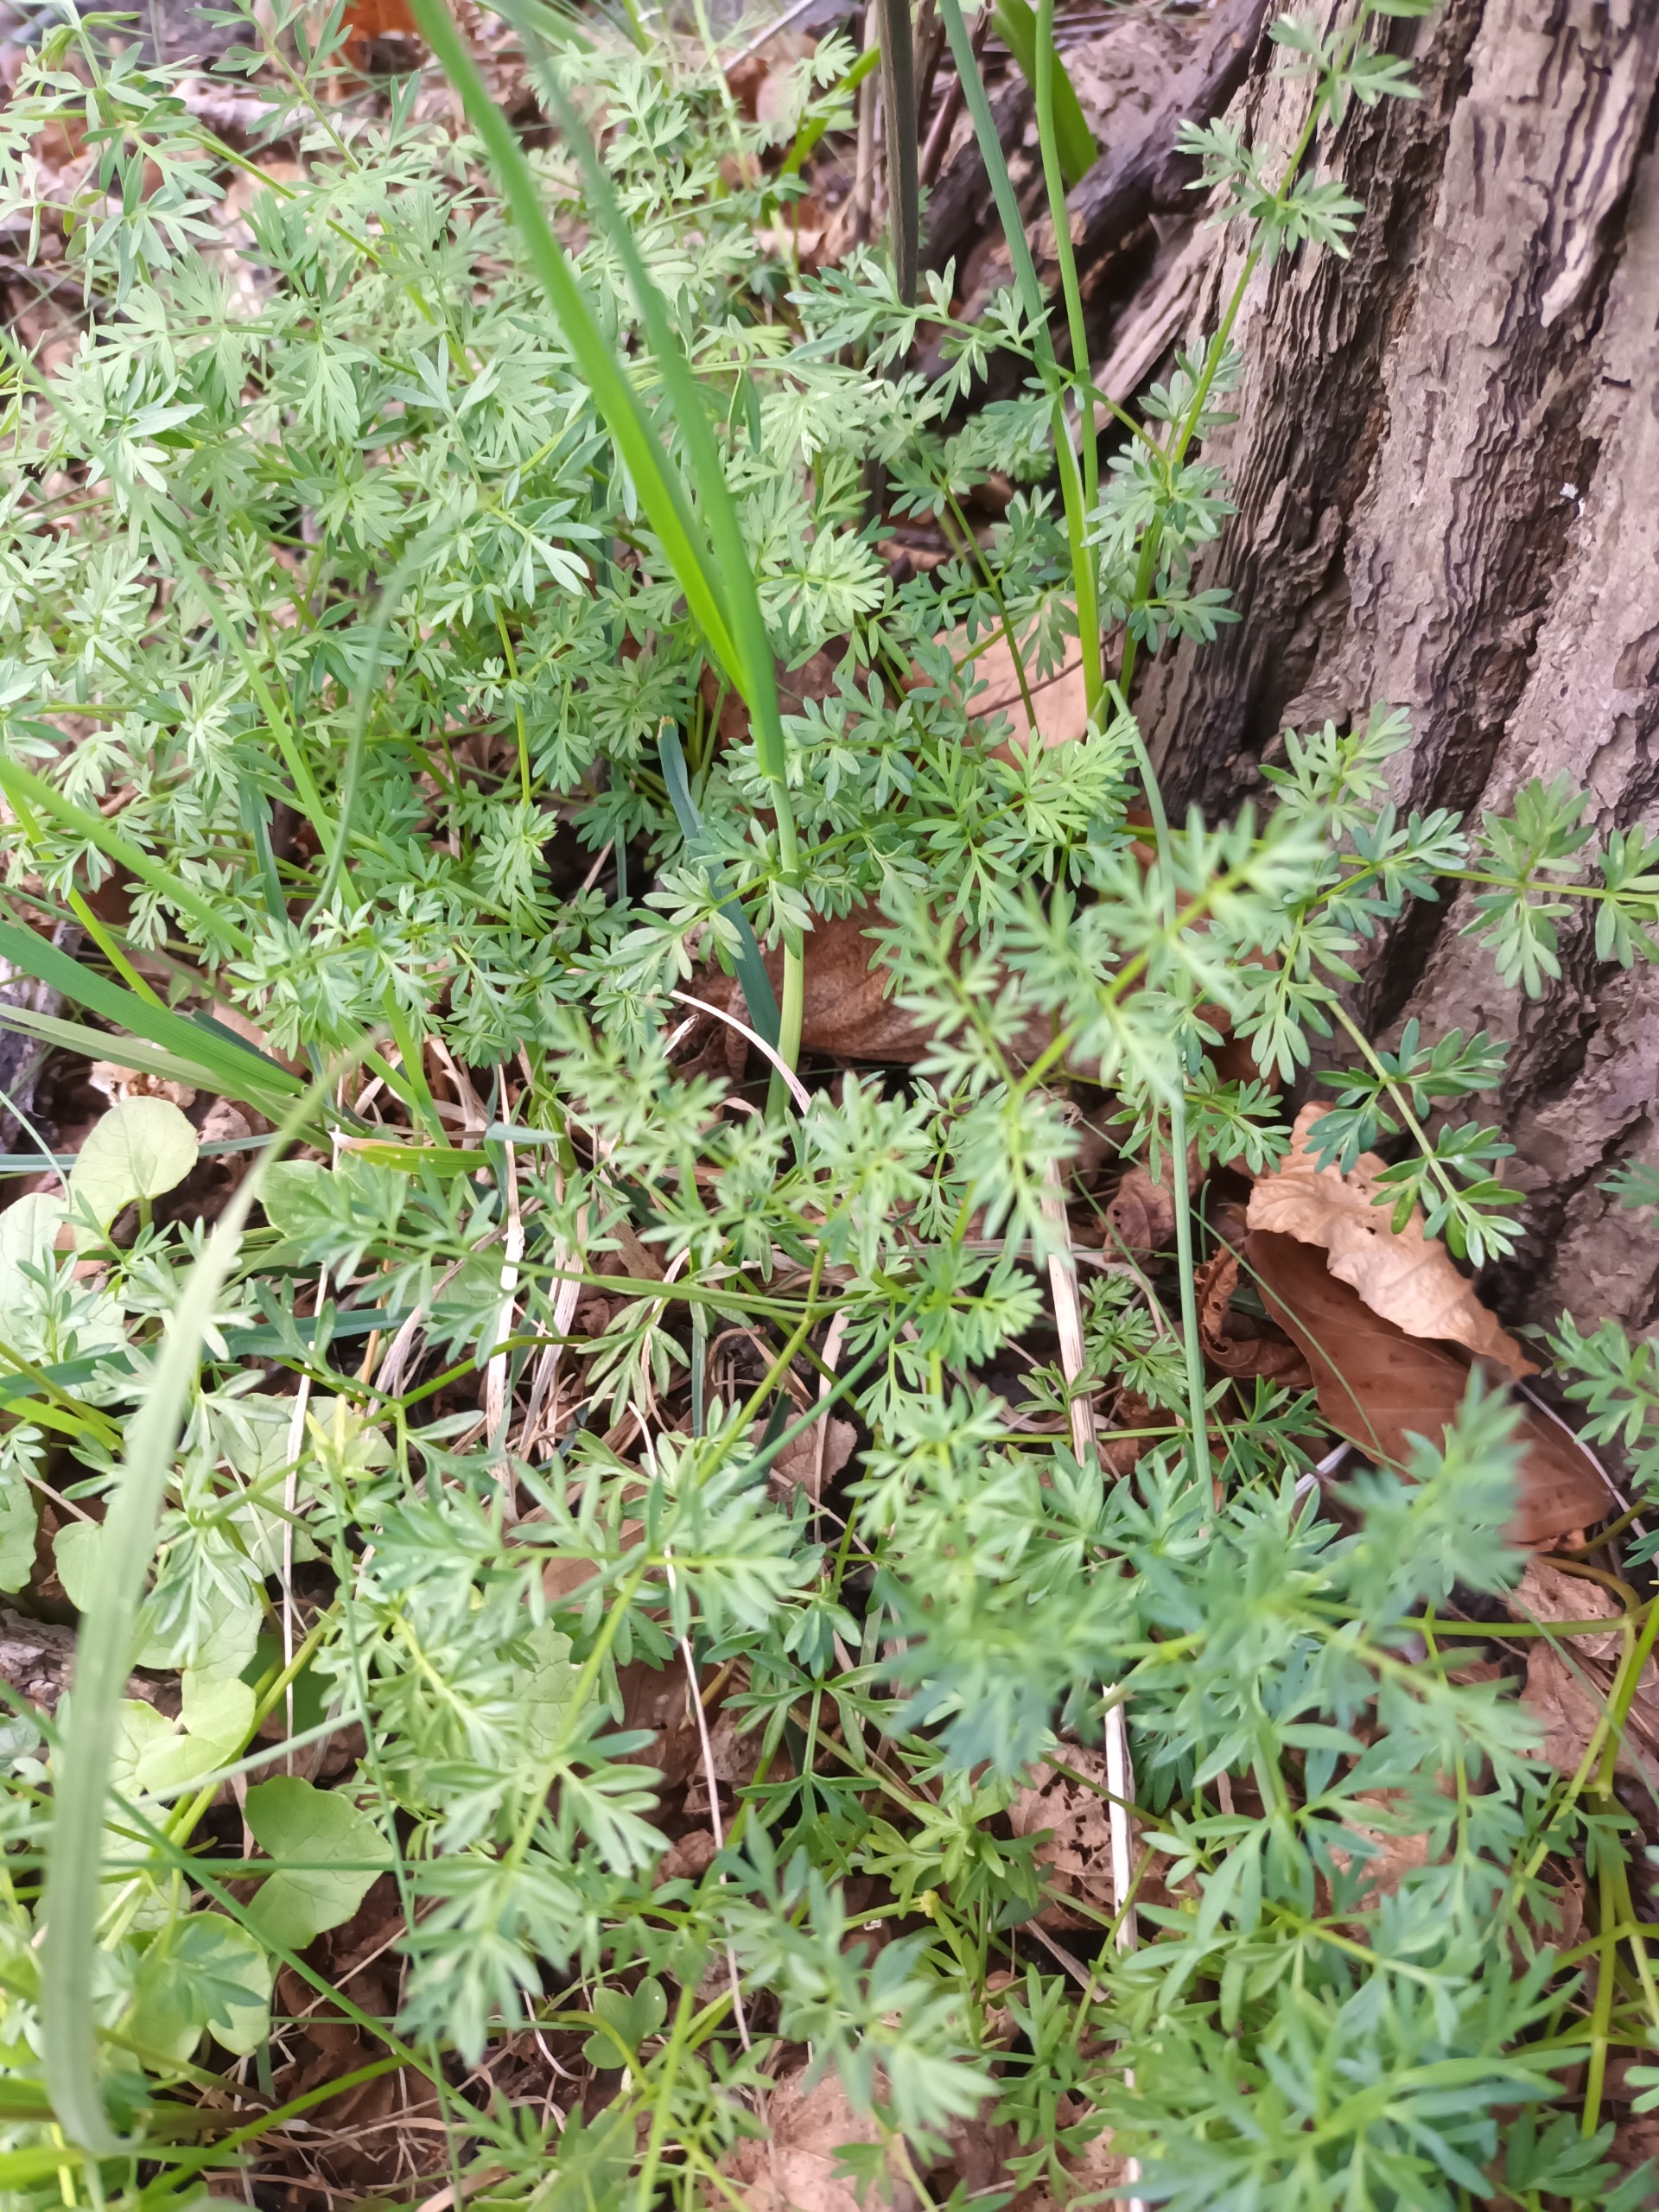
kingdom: Plantae
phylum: Tracheophyta
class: Magnoliopsida
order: Apiales
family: Apiaceae
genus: Bunium
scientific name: Bunium bulbocastanum
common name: Jordkastanie
